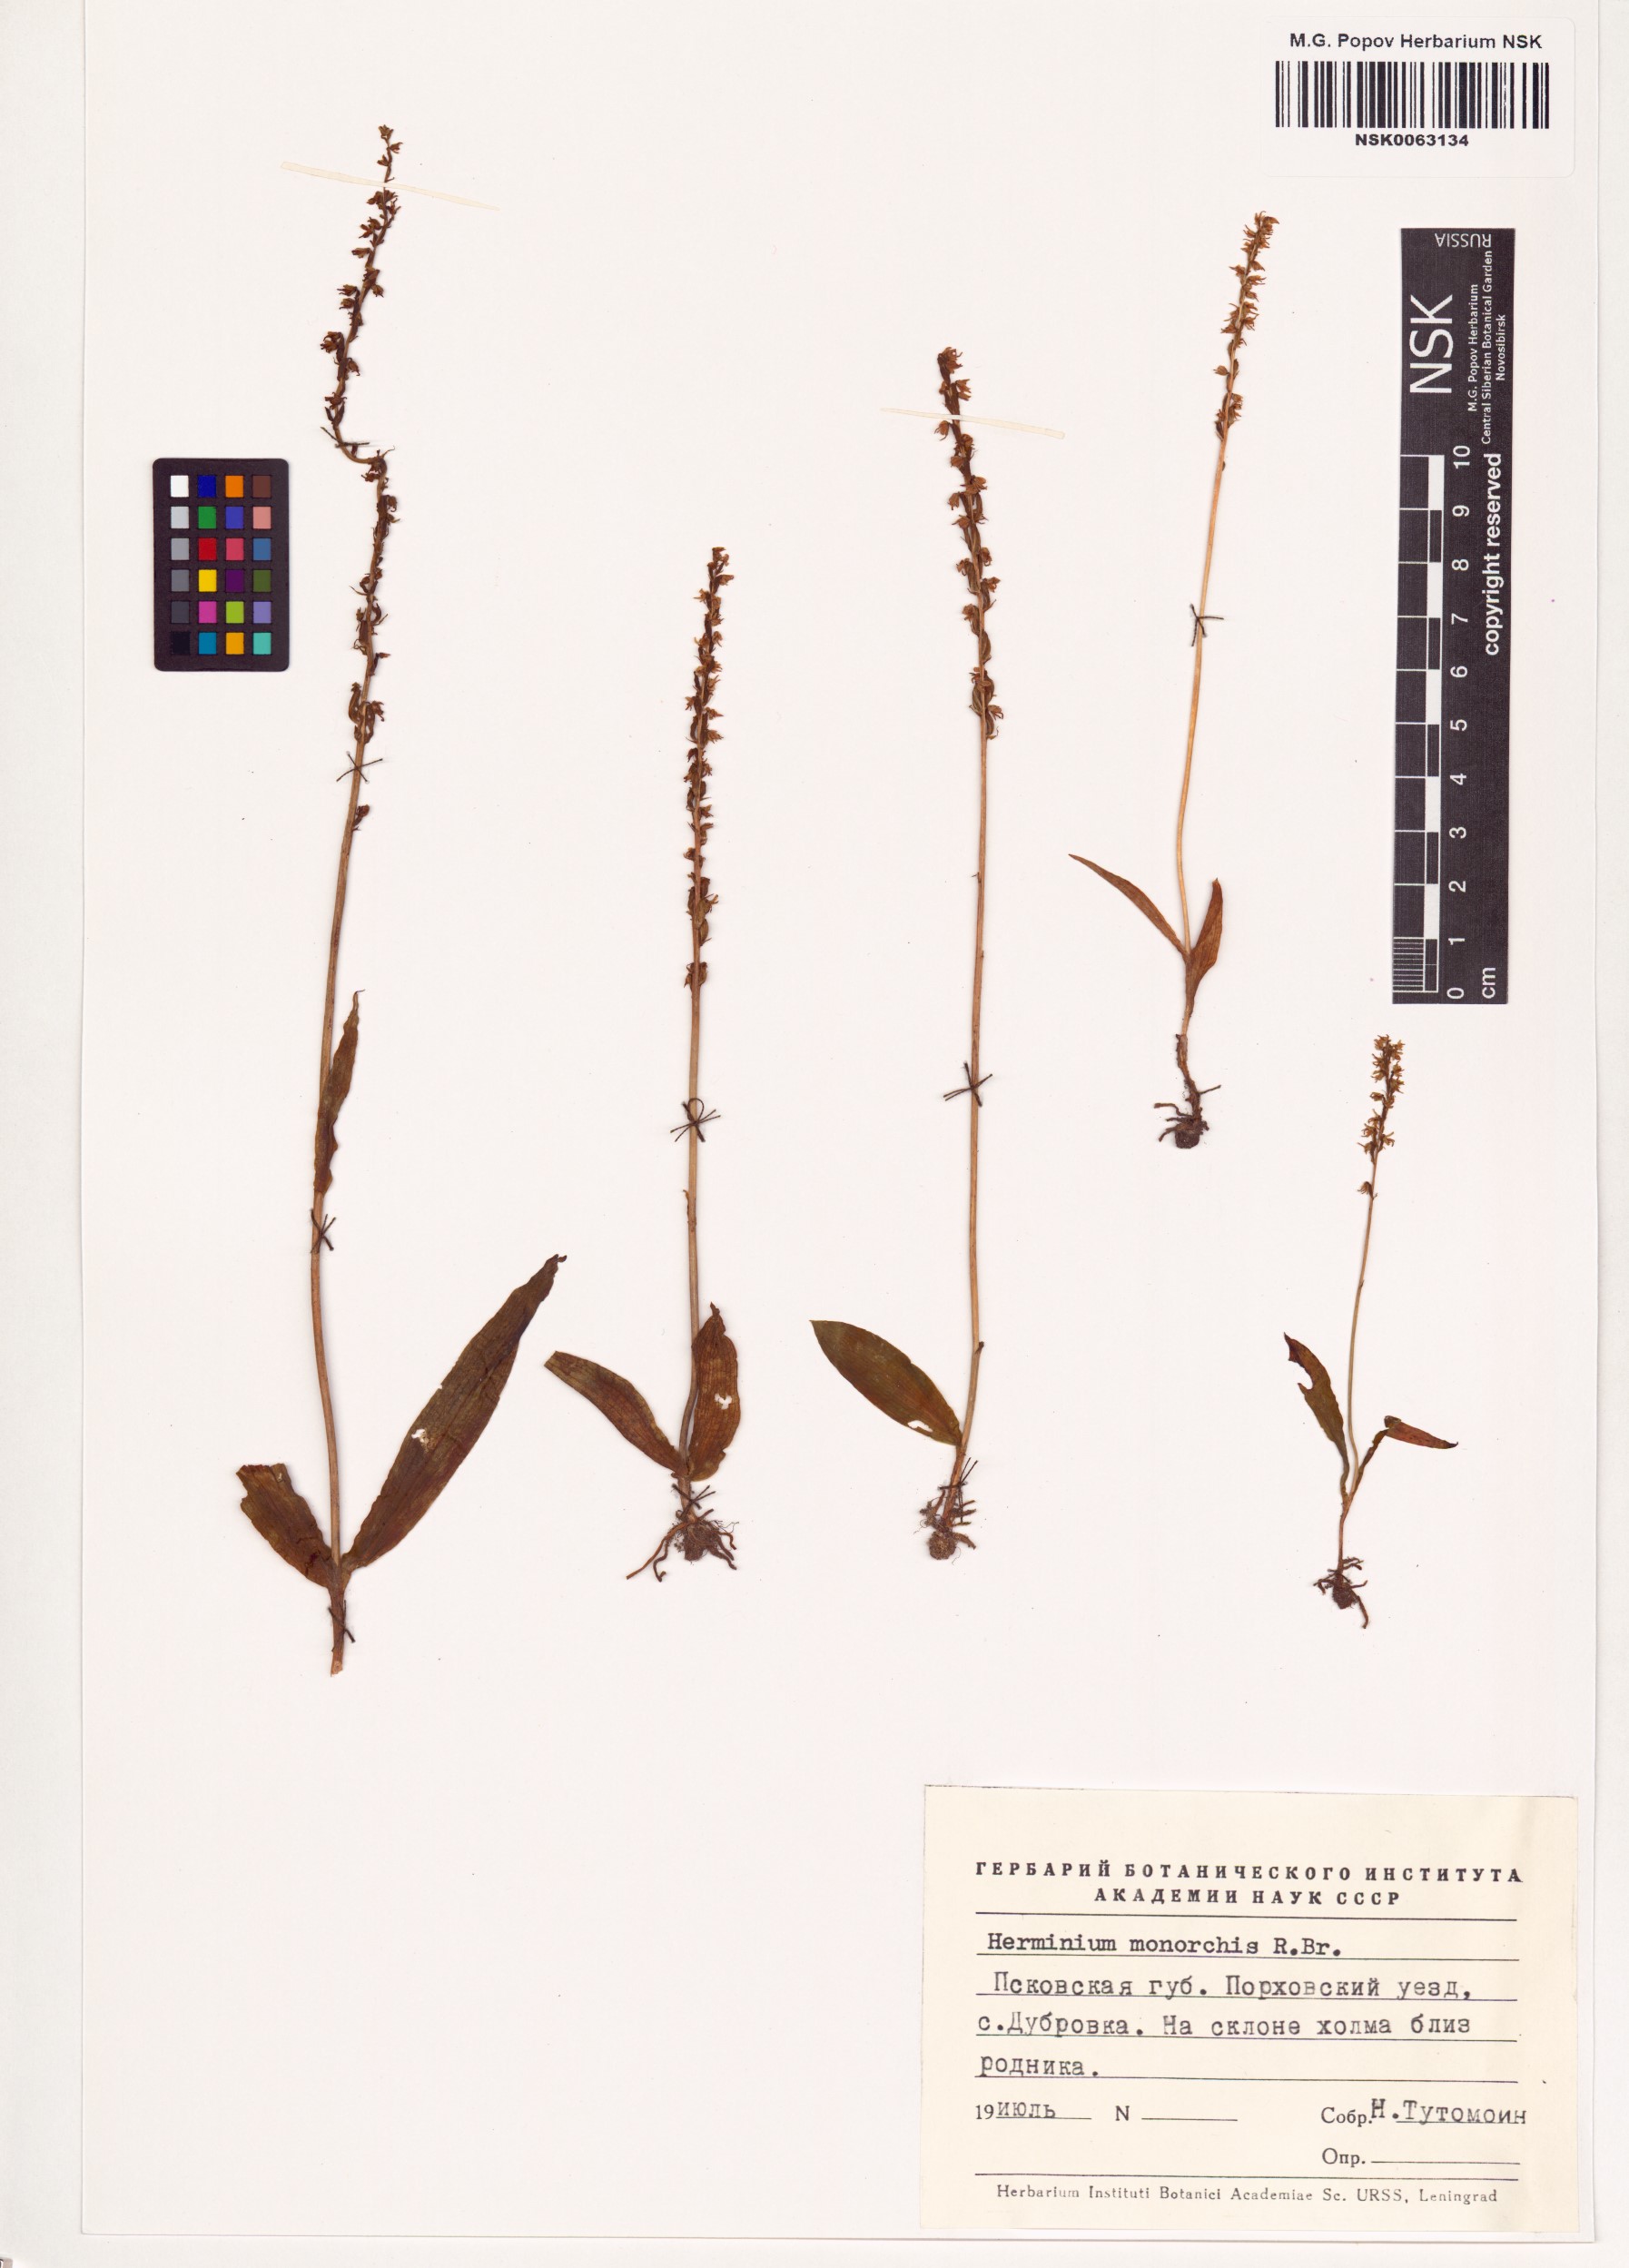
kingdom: Plantae
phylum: Tracheophyta
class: Liliopsida
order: Asparagales
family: Orchidaceae
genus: Herminium
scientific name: Herminium monorchis
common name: Musk orchid
